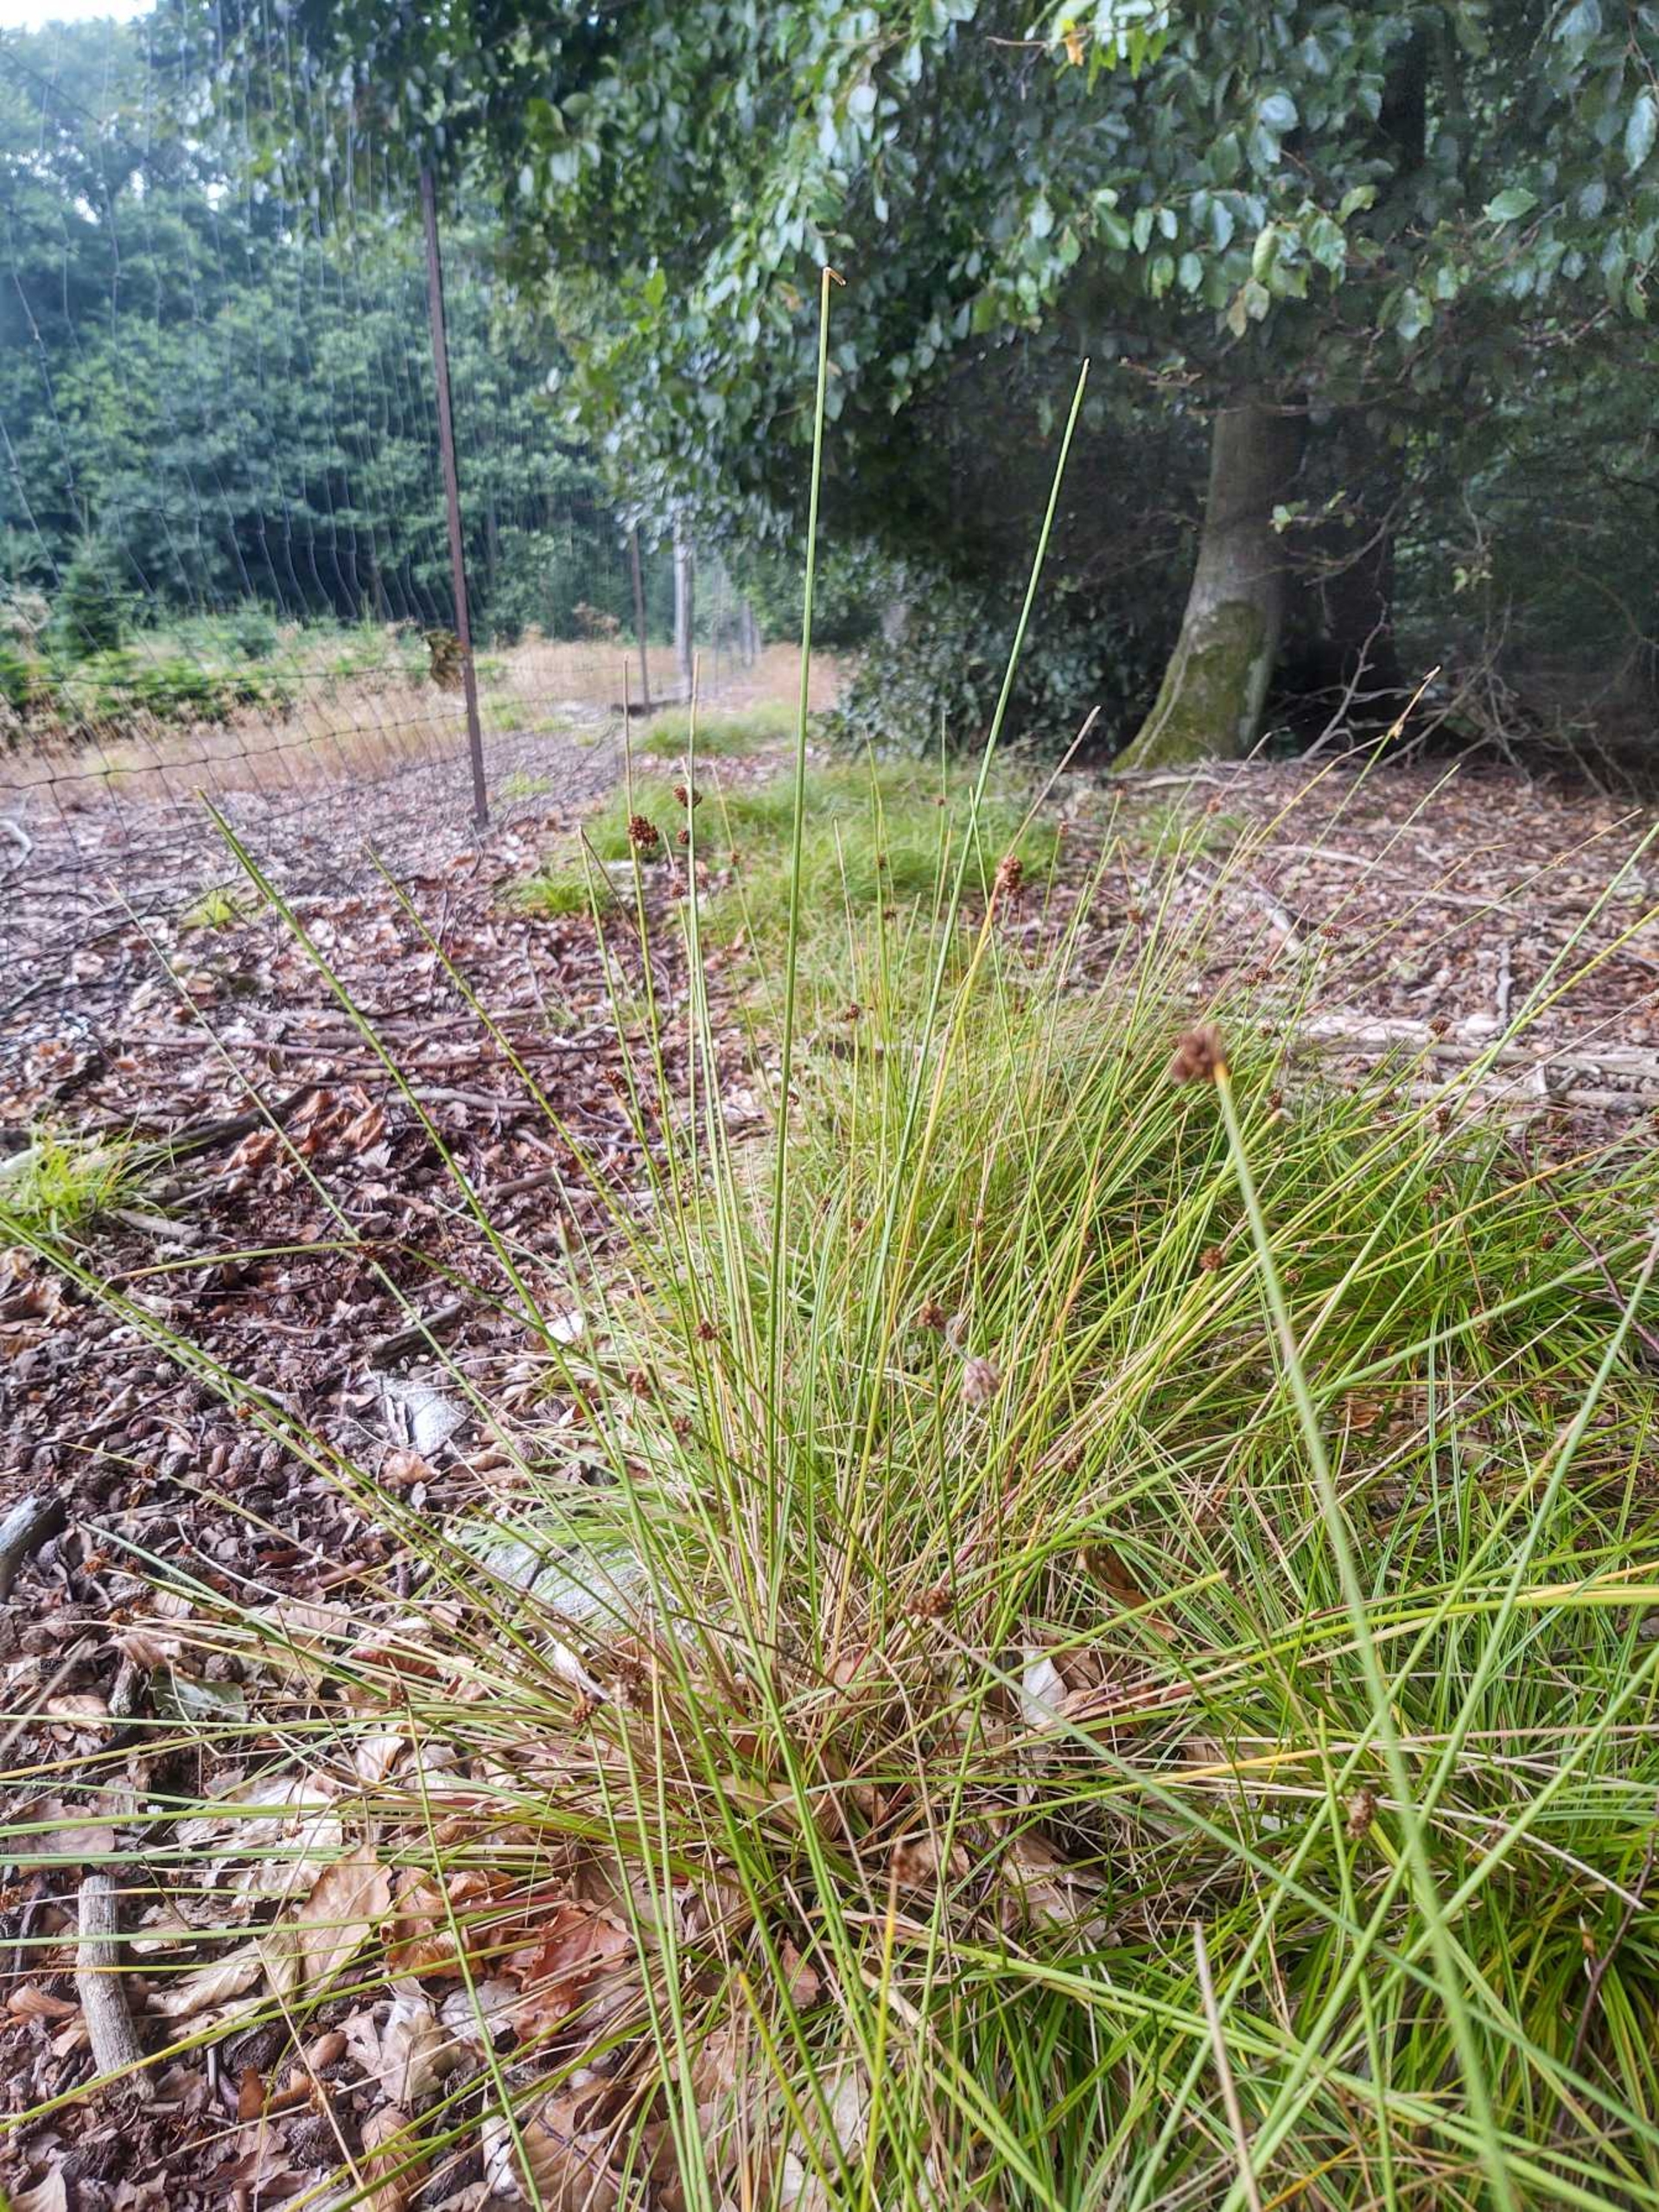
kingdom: Plantae
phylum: Tracheophyta
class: Liliopsida
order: Poales
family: Juncaceae
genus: Juncus
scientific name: Juncus conglomeratus
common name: Knop-siv
